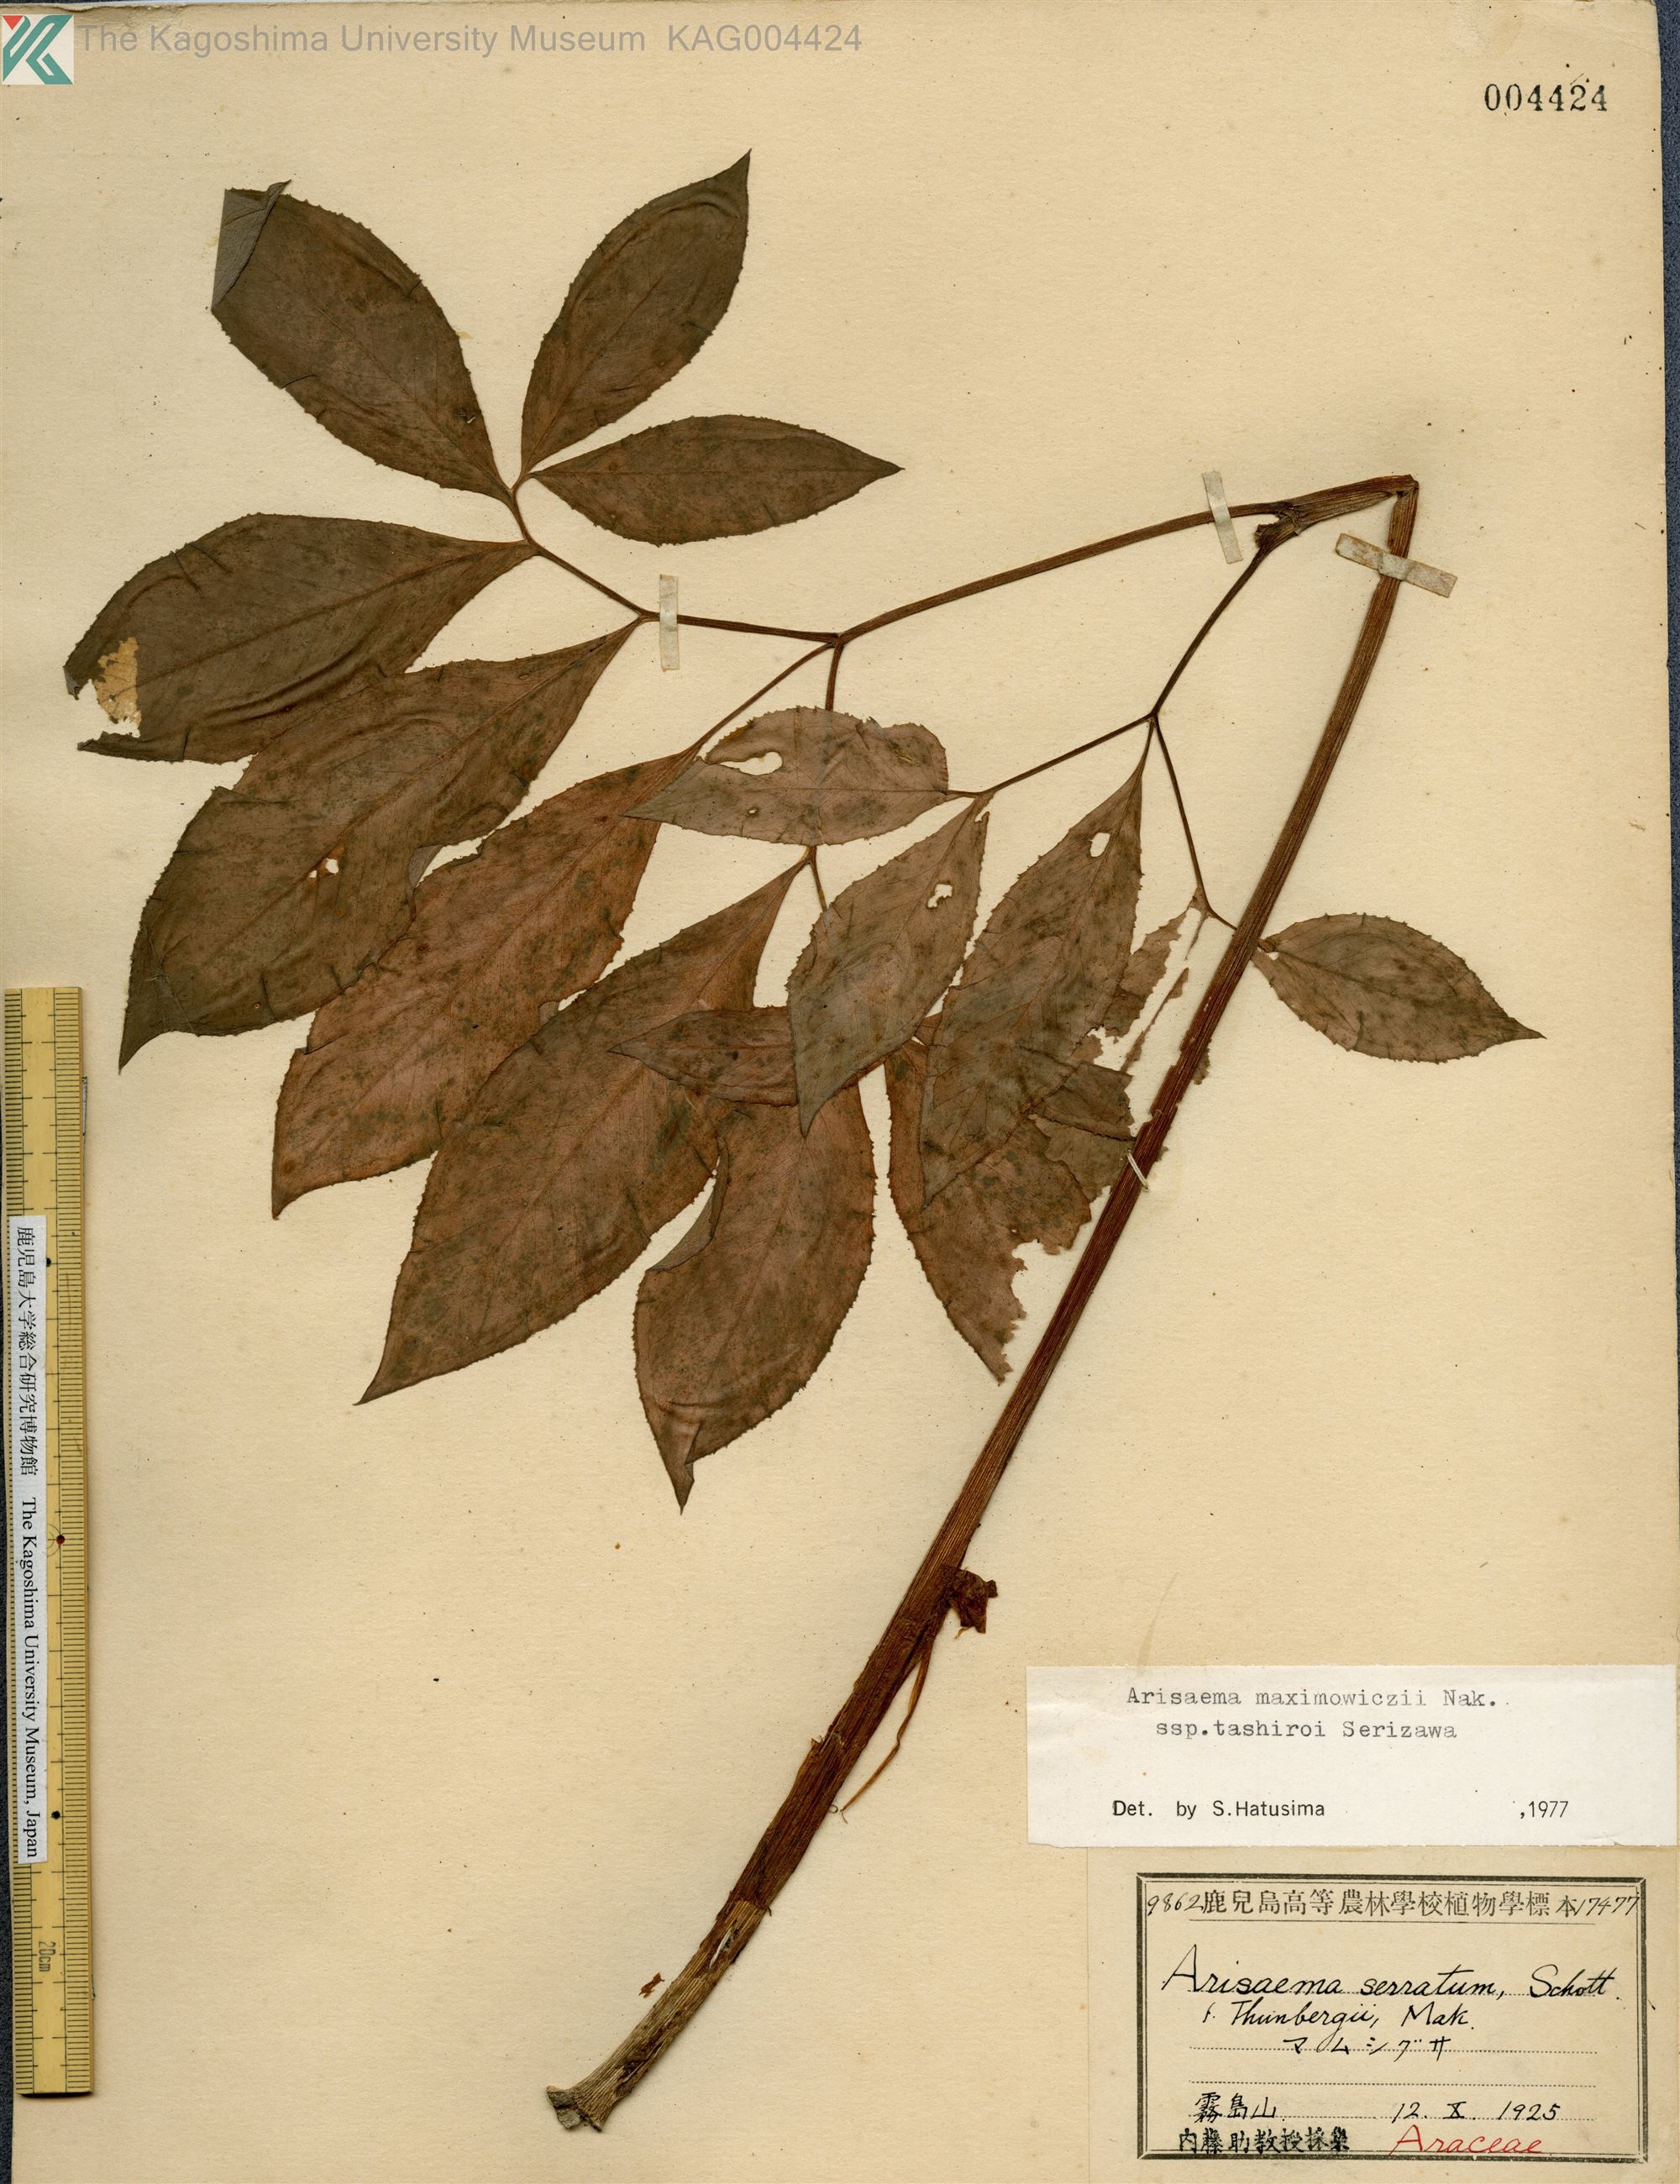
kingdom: Plantae
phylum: Tracheophyta
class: Liliopsida
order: Alismatales
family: Araceae
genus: Arisaema
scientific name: Arisaema tashiroi
